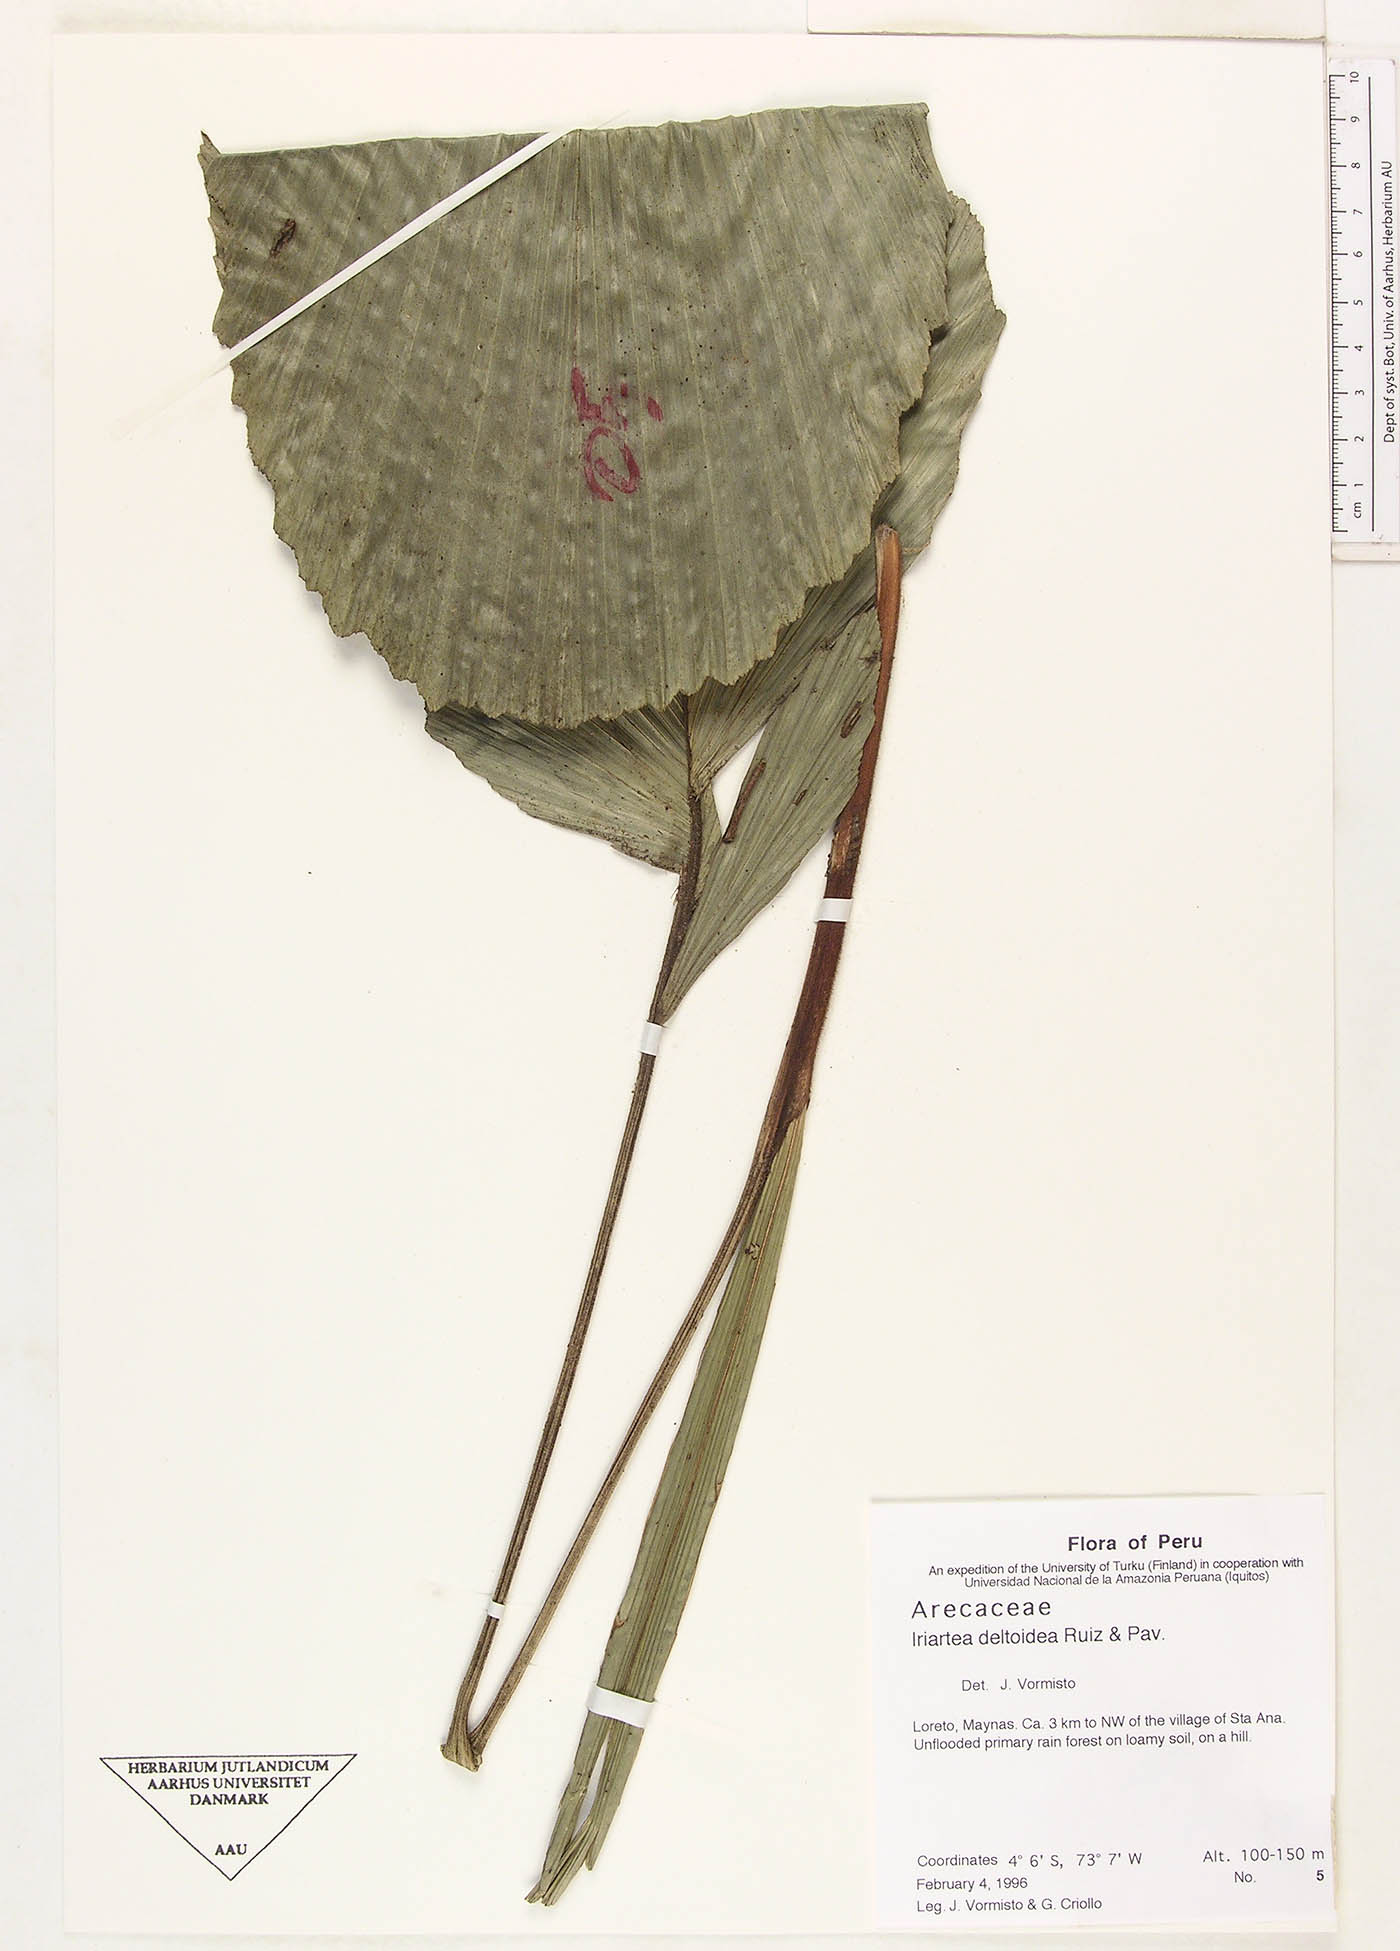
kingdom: Plantae
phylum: Tracheophyta
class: Liliopsida
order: Arecales
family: Arecaceae
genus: Iriartea
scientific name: Iriartea deltoidea
